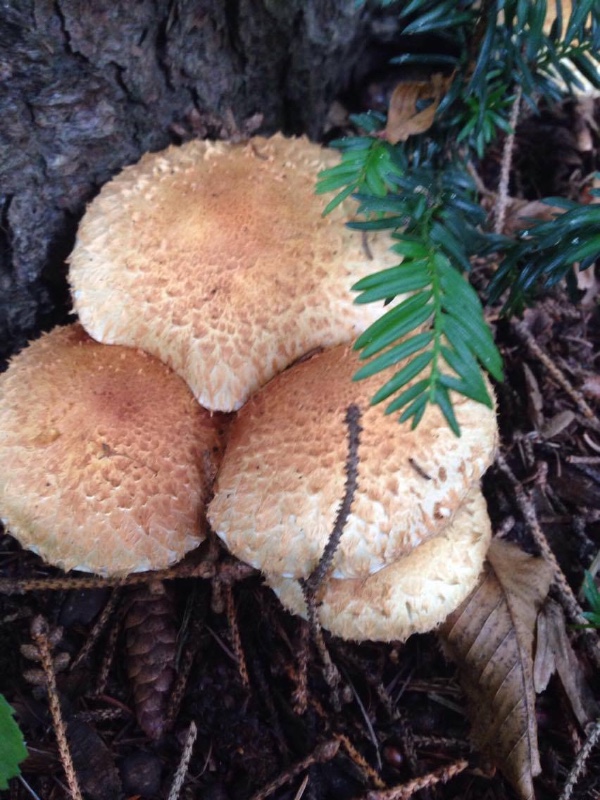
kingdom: Fungi
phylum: Basidiomycota
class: Agaricomycetes
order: Agaricales
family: Strophariaceae
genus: Pholiota
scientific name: Pholiota flammans
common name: flamme-skælhat
